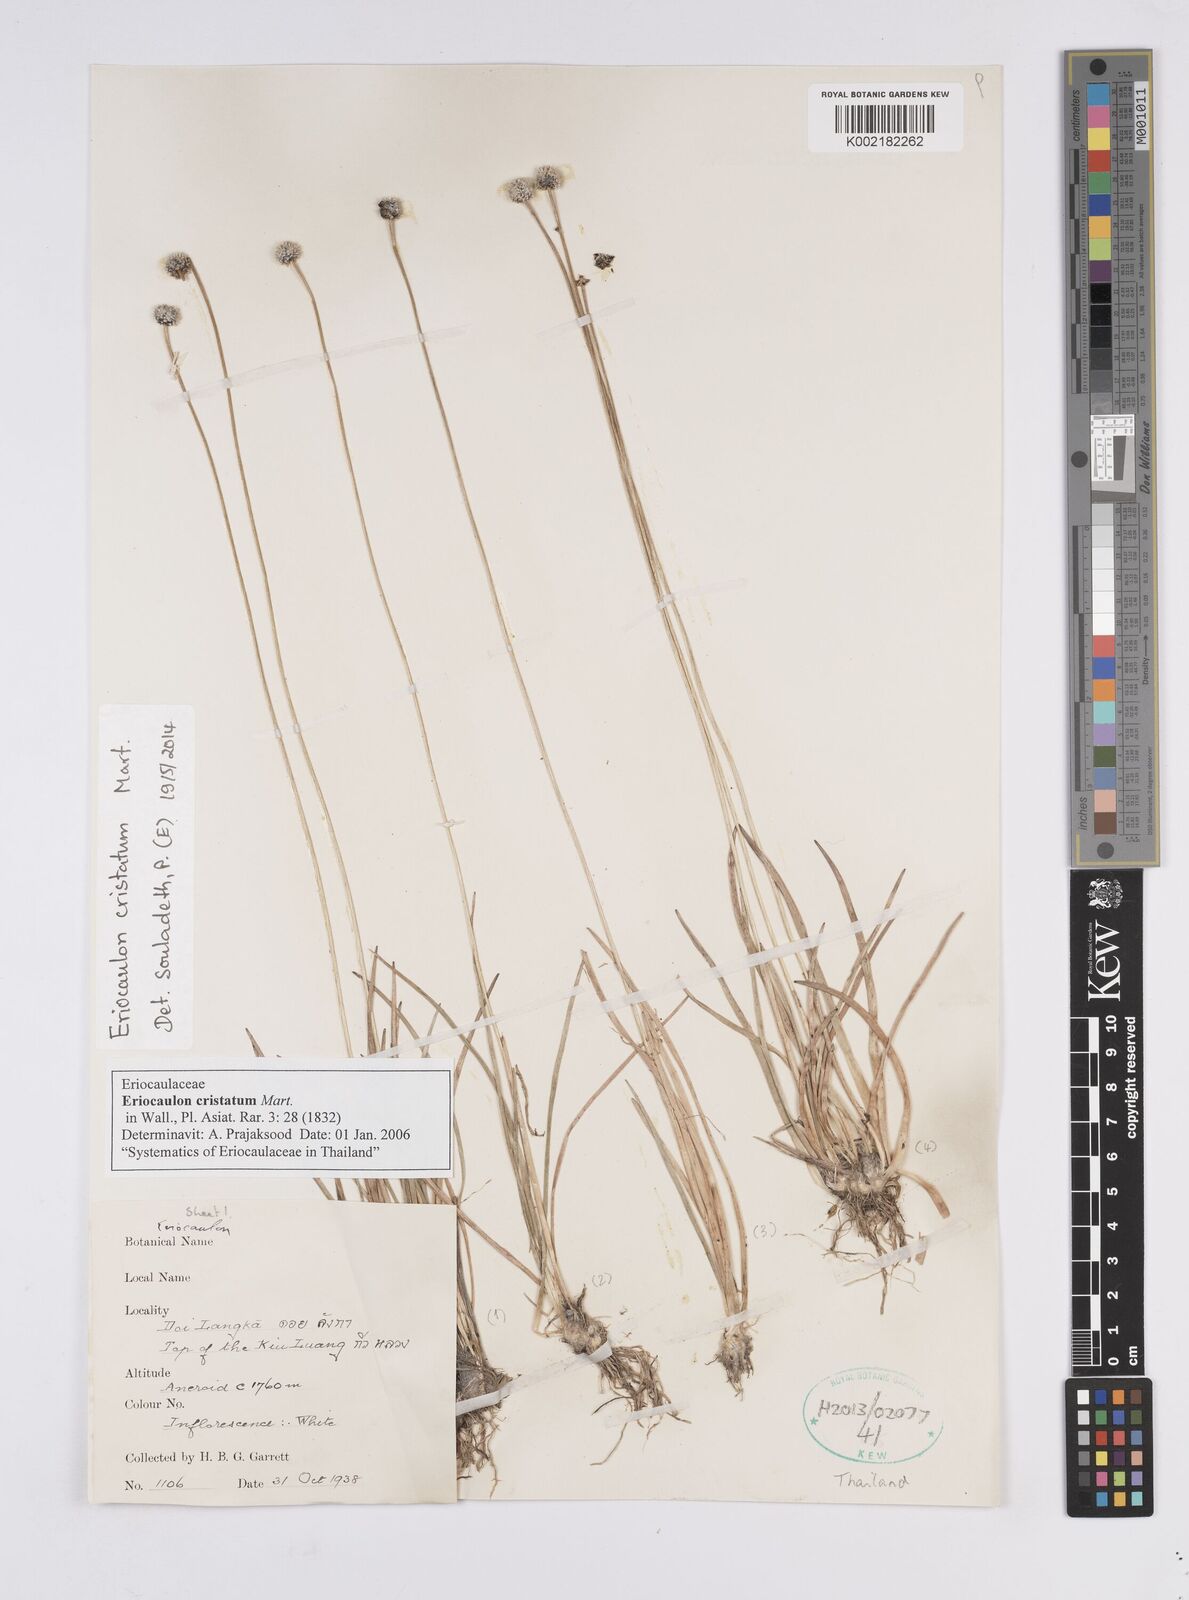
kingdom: Plantae
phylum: Tracheophyta
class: Liliopsida
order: Poales
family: Eriocaulaceae
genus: Eriocaulon
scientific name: Eriocaulon cristatum
